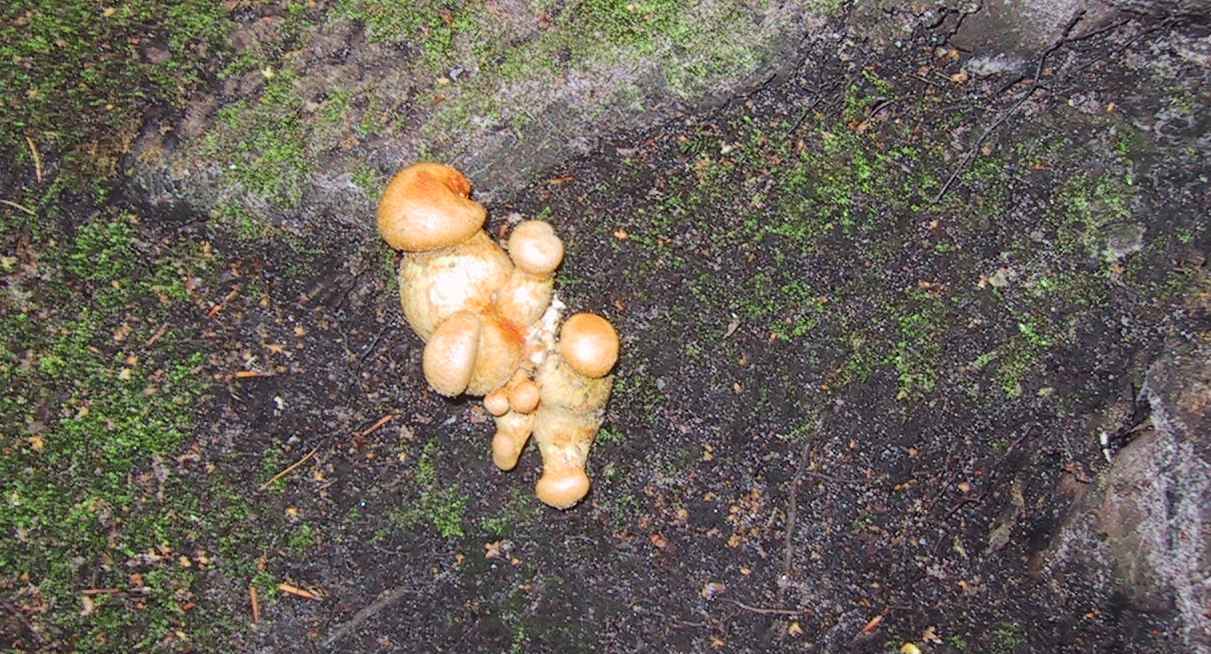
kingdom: Fungi
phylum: Basidiomycota
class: Agaricomycetes
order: Agaricales
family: Hymenogastraceae
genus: Gymnopilus
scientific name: Gymnopilus spectabilis
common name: fibret flammehat
